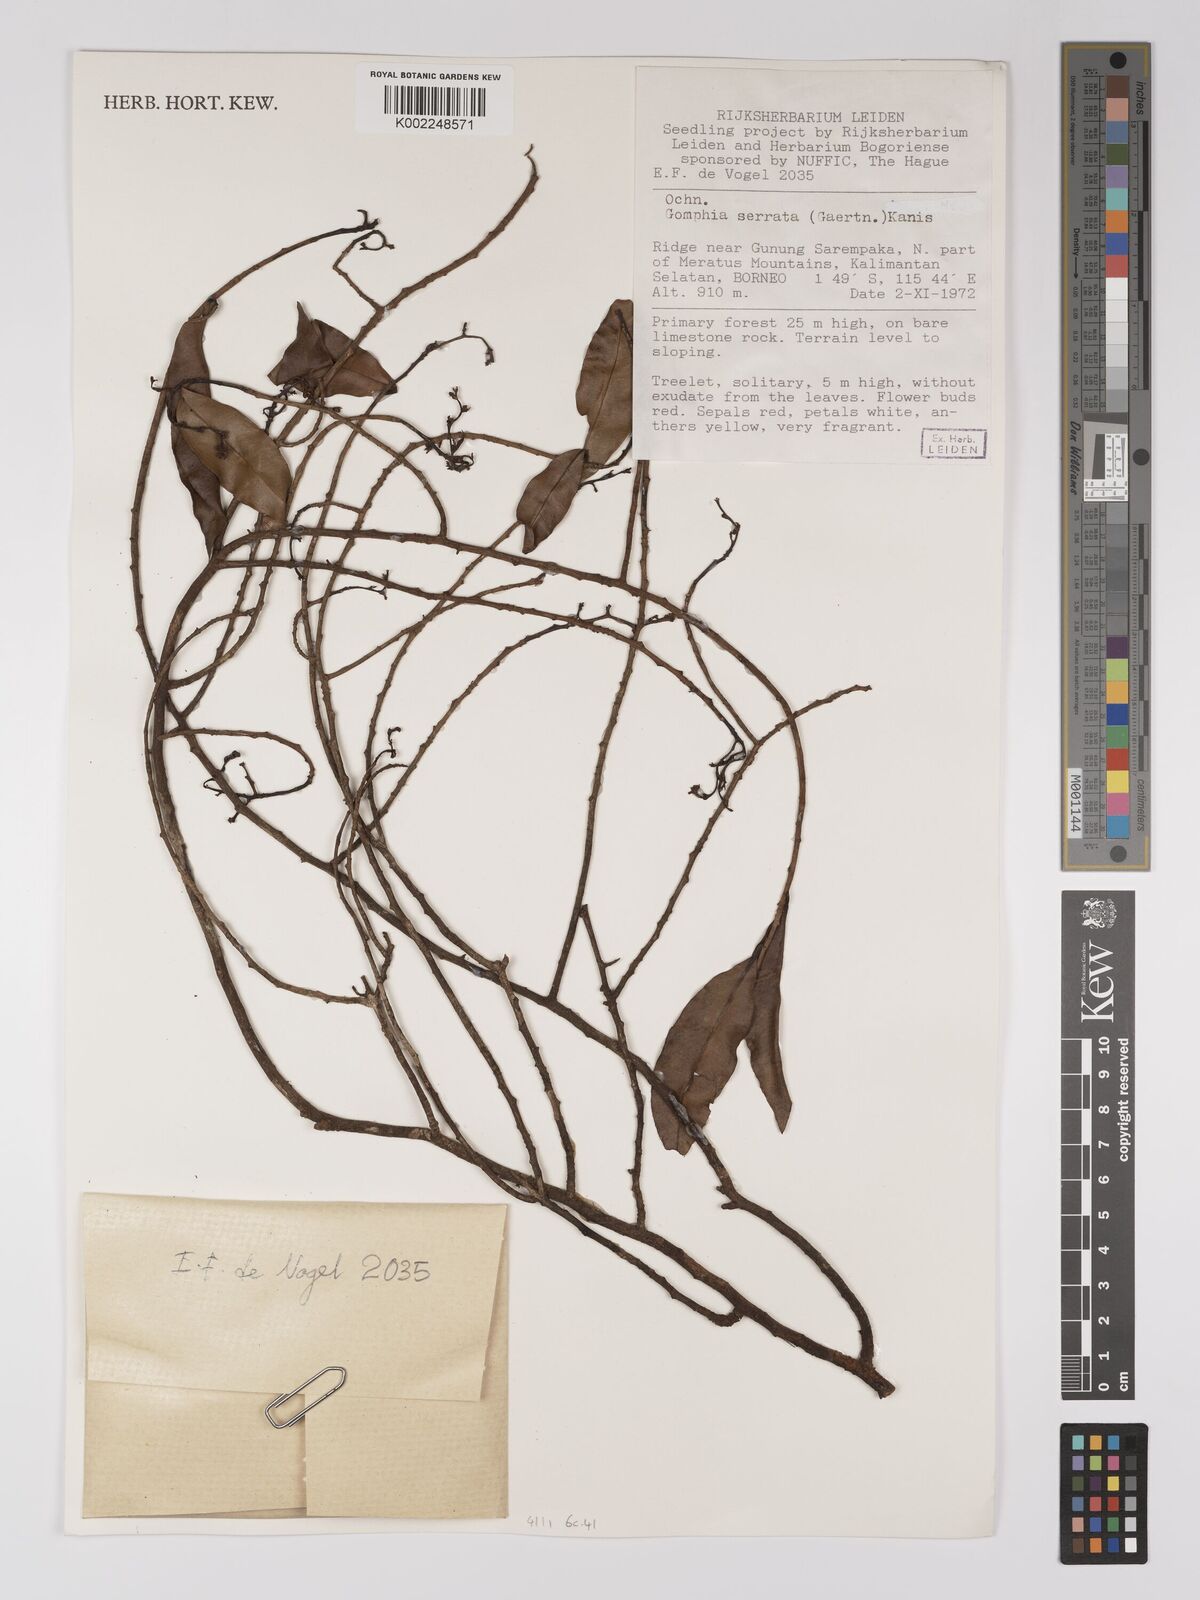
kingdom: Plantae
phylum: Tracheophyta
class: Magnoliopsida
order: Malpighiales
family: Ochnaceae
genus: Campylospermum
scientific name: Campylospermum
